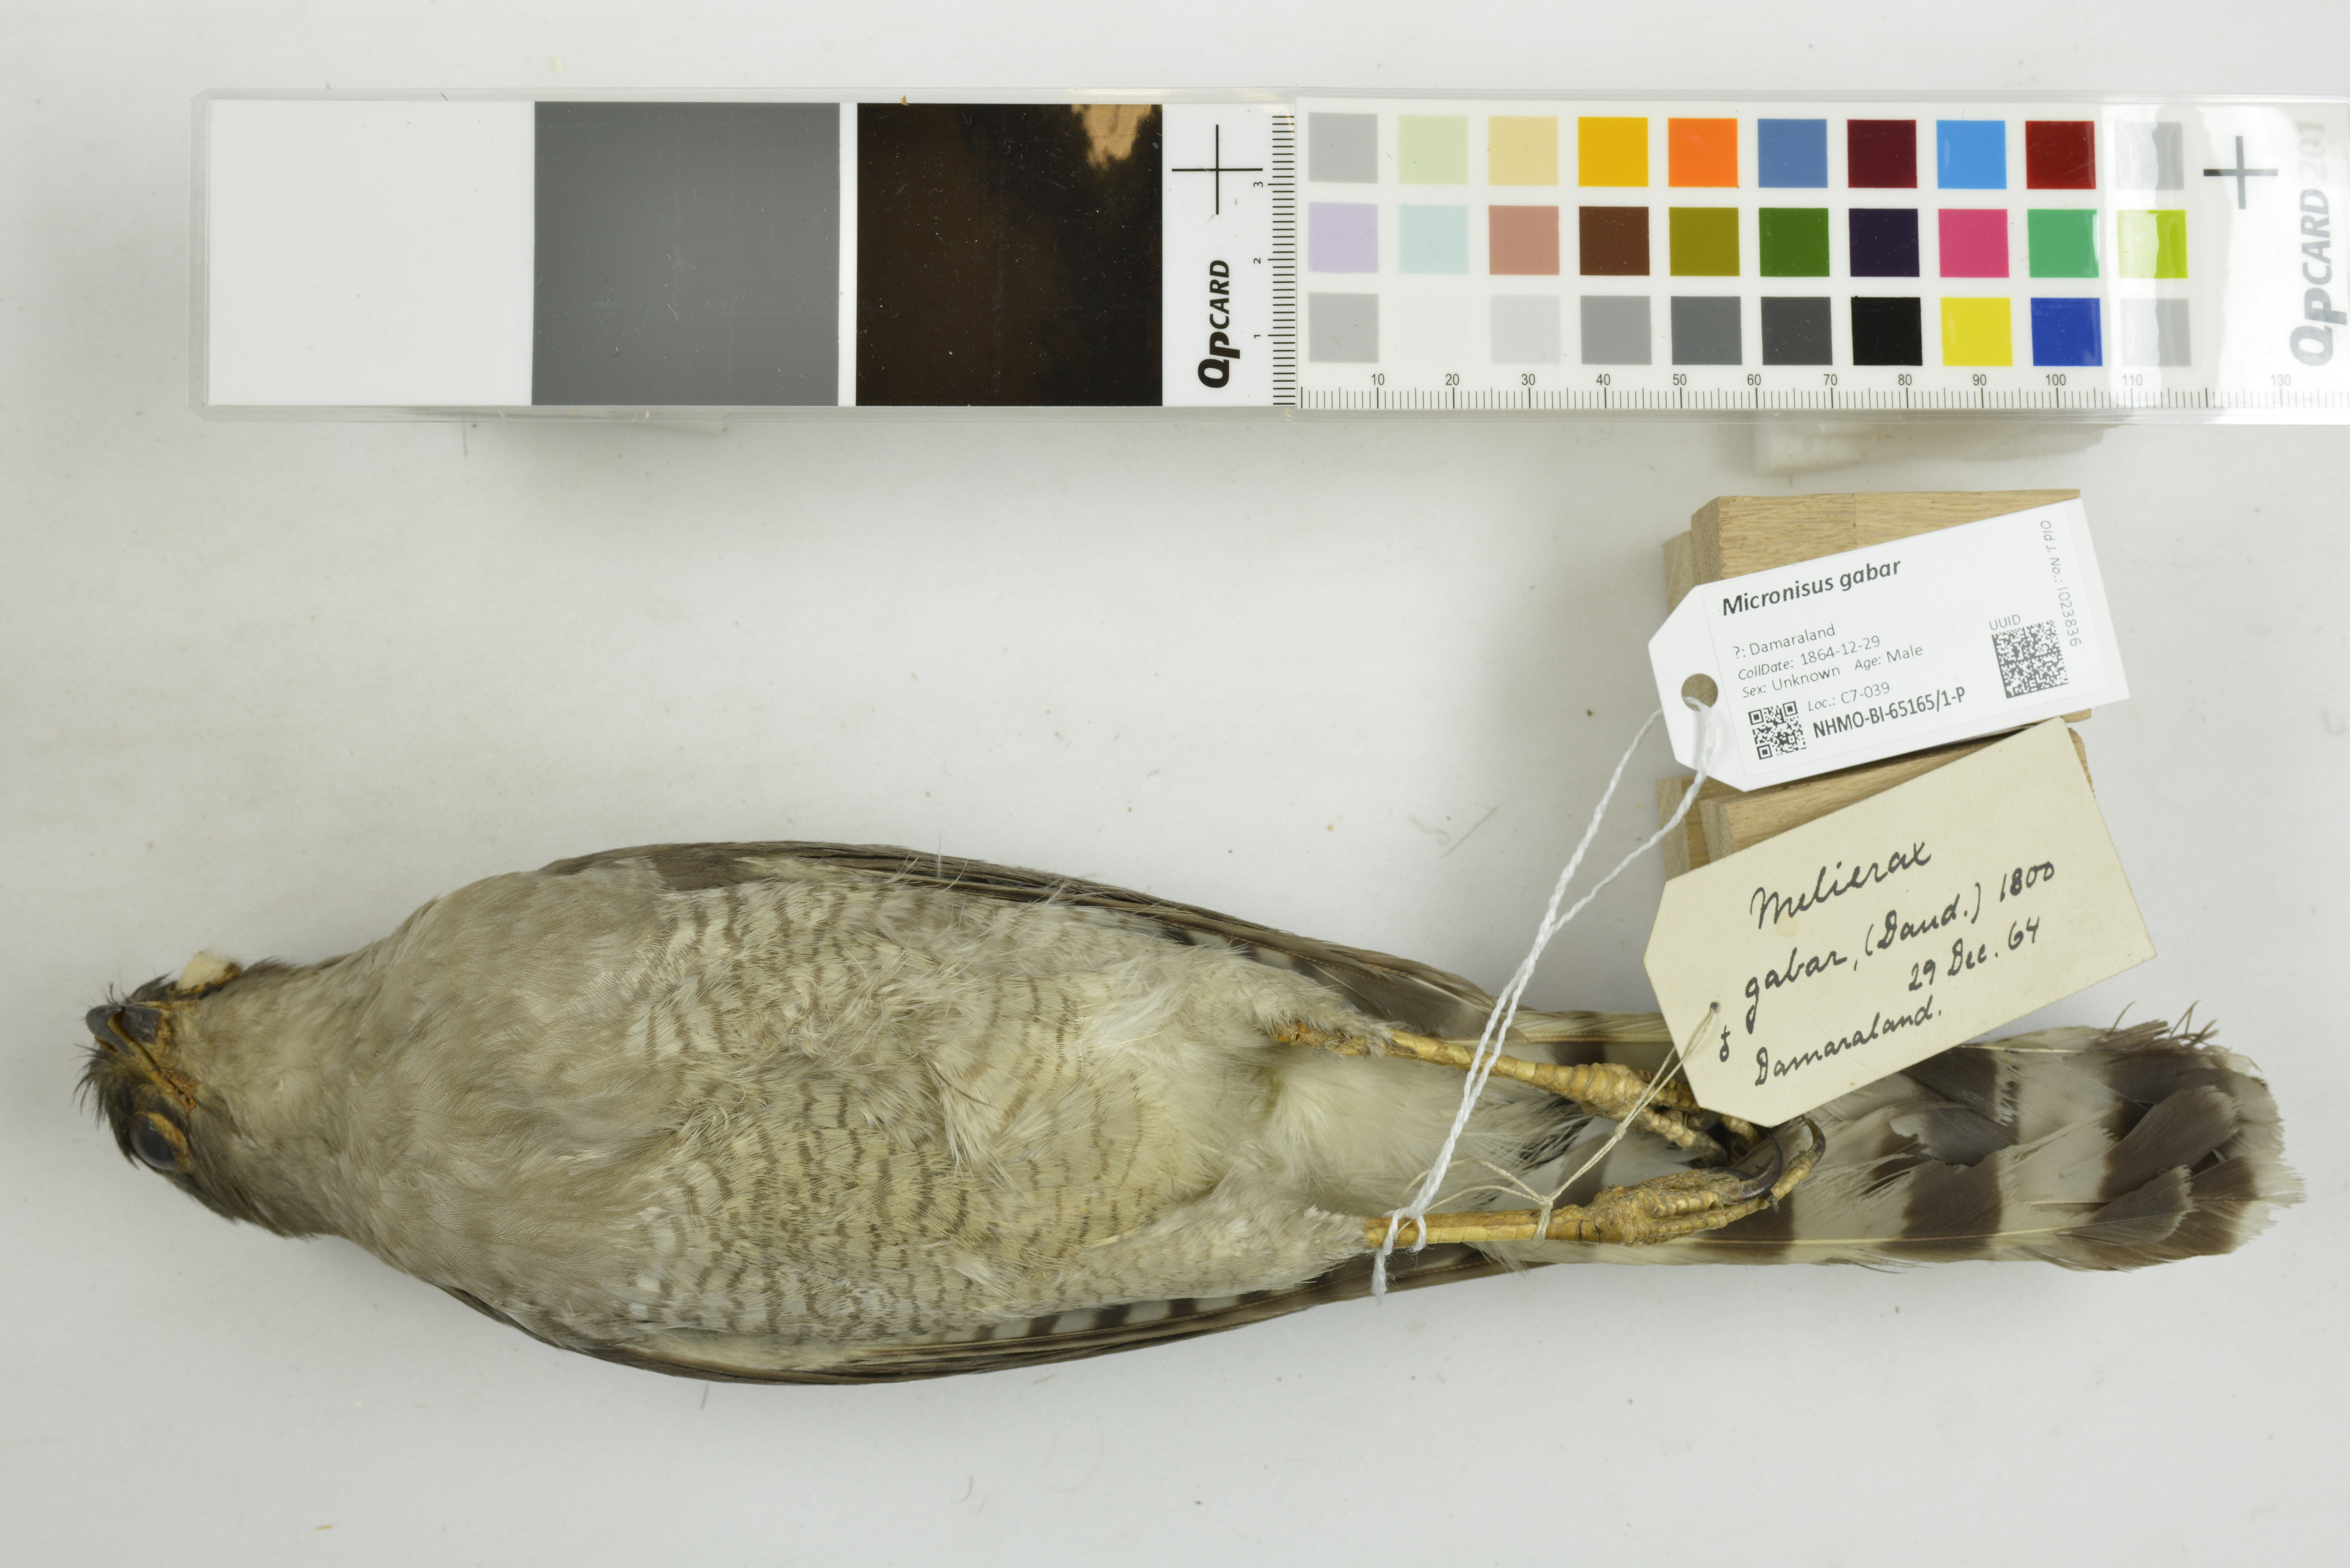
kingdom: Animalia
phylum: Chordata
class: Aves
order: Accipitriformes
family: Accipitridae
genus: Micronisus
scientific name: Micronisus gabar
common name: Gabar goshawk
